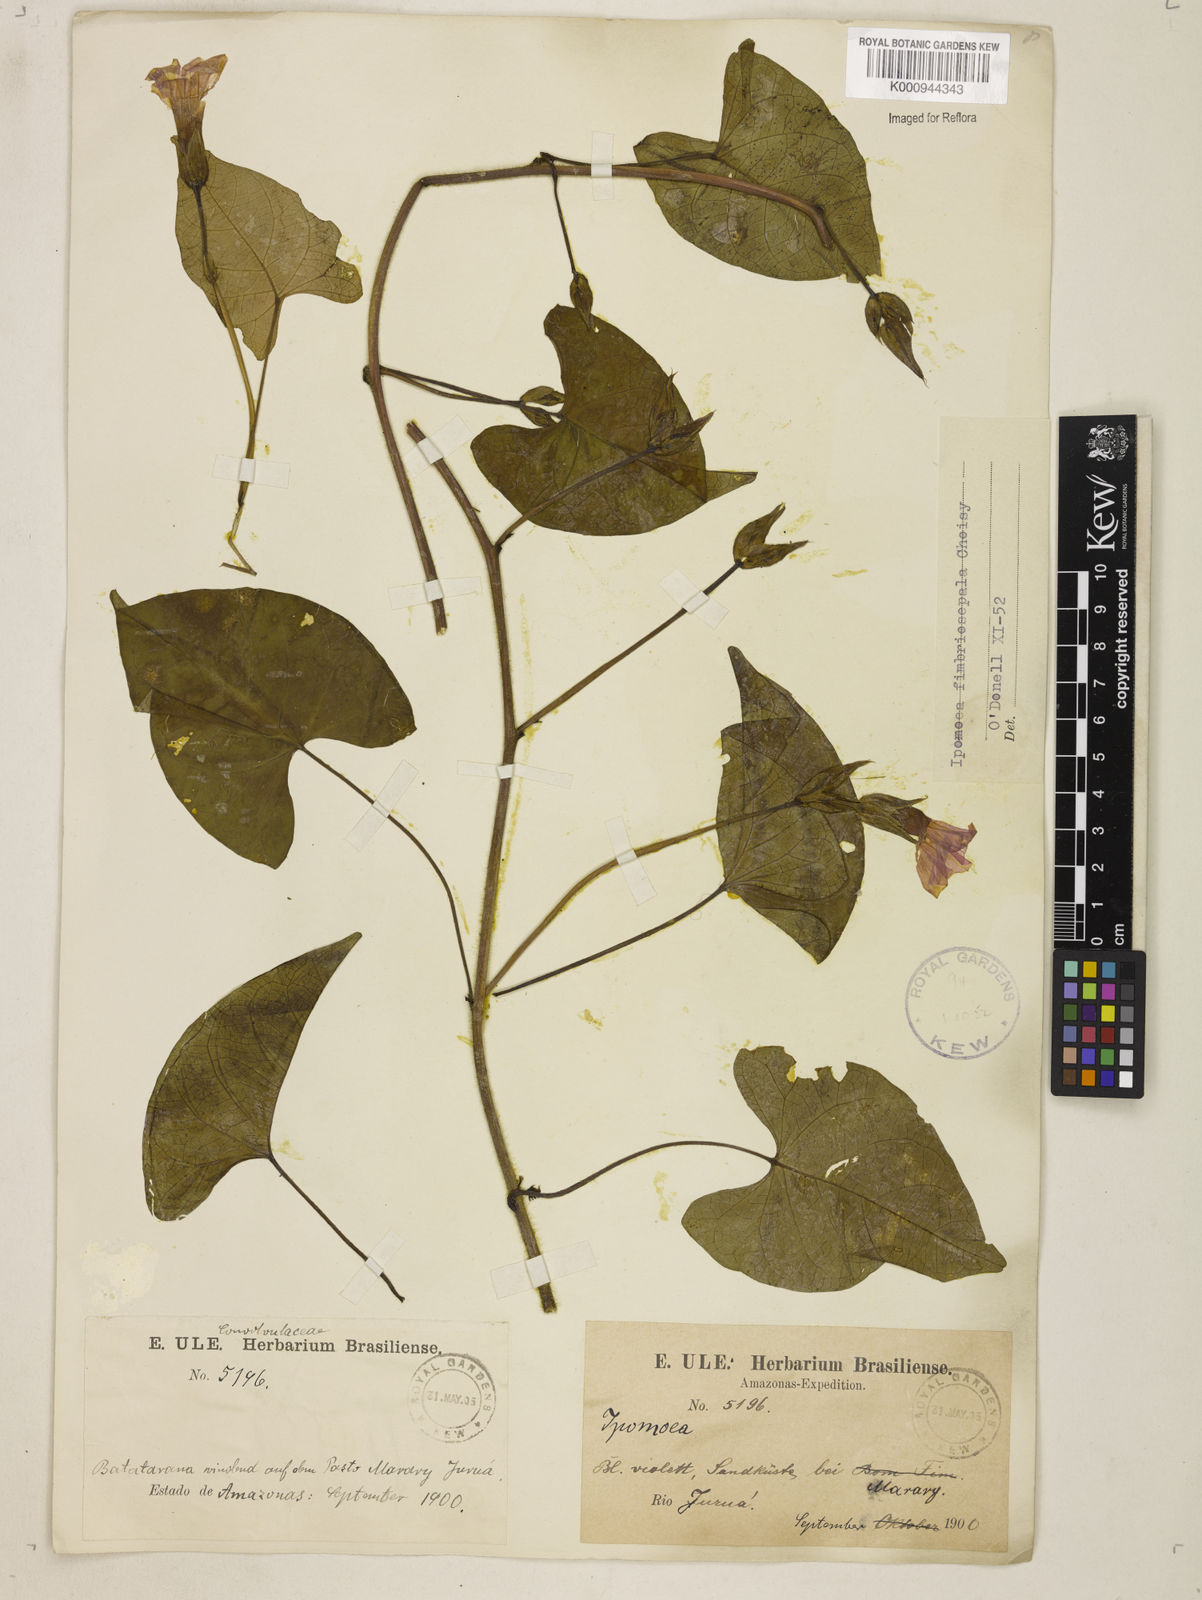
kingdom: Plantae
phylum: Tracheophyta
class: Magnoliopsida
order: Solanales
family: Convolvulaceae
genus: Ipomoea
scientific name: Ipomoea fimbriosepala
